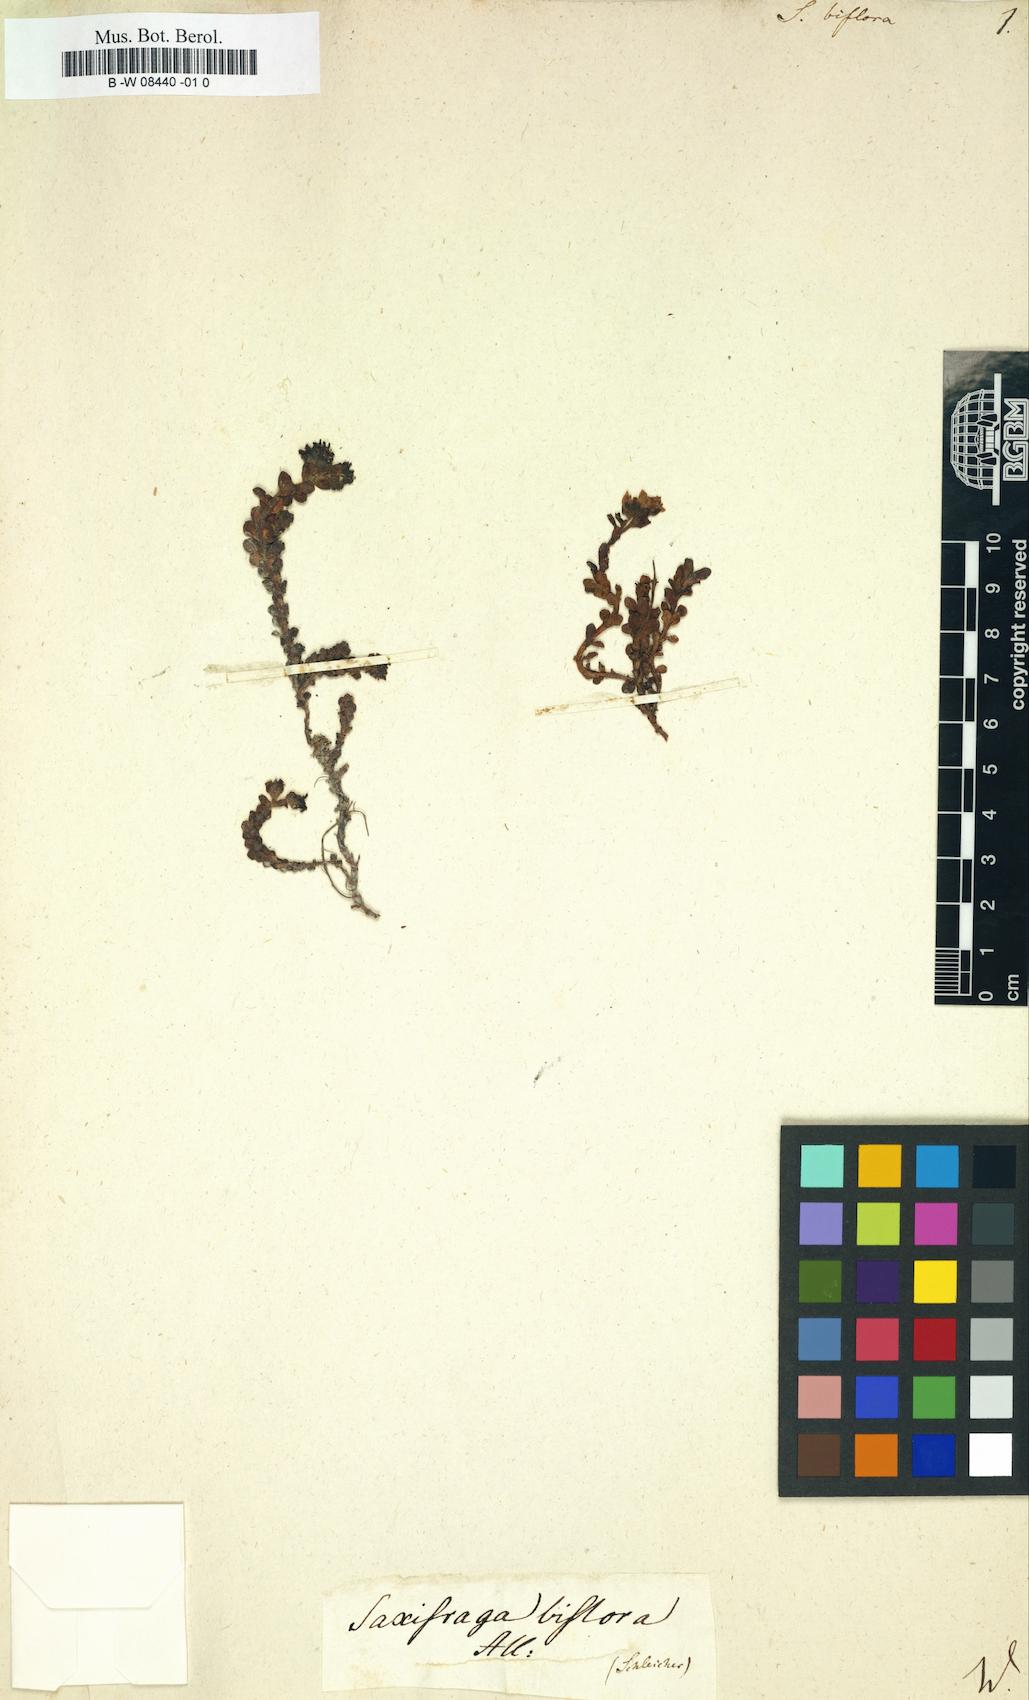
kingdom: Plantae
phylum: Tracheophyta
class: Magnoliopsida
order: Saxifragales
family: Saxifragaceae
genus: Saxifraga
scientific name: Saxifraga biflora
